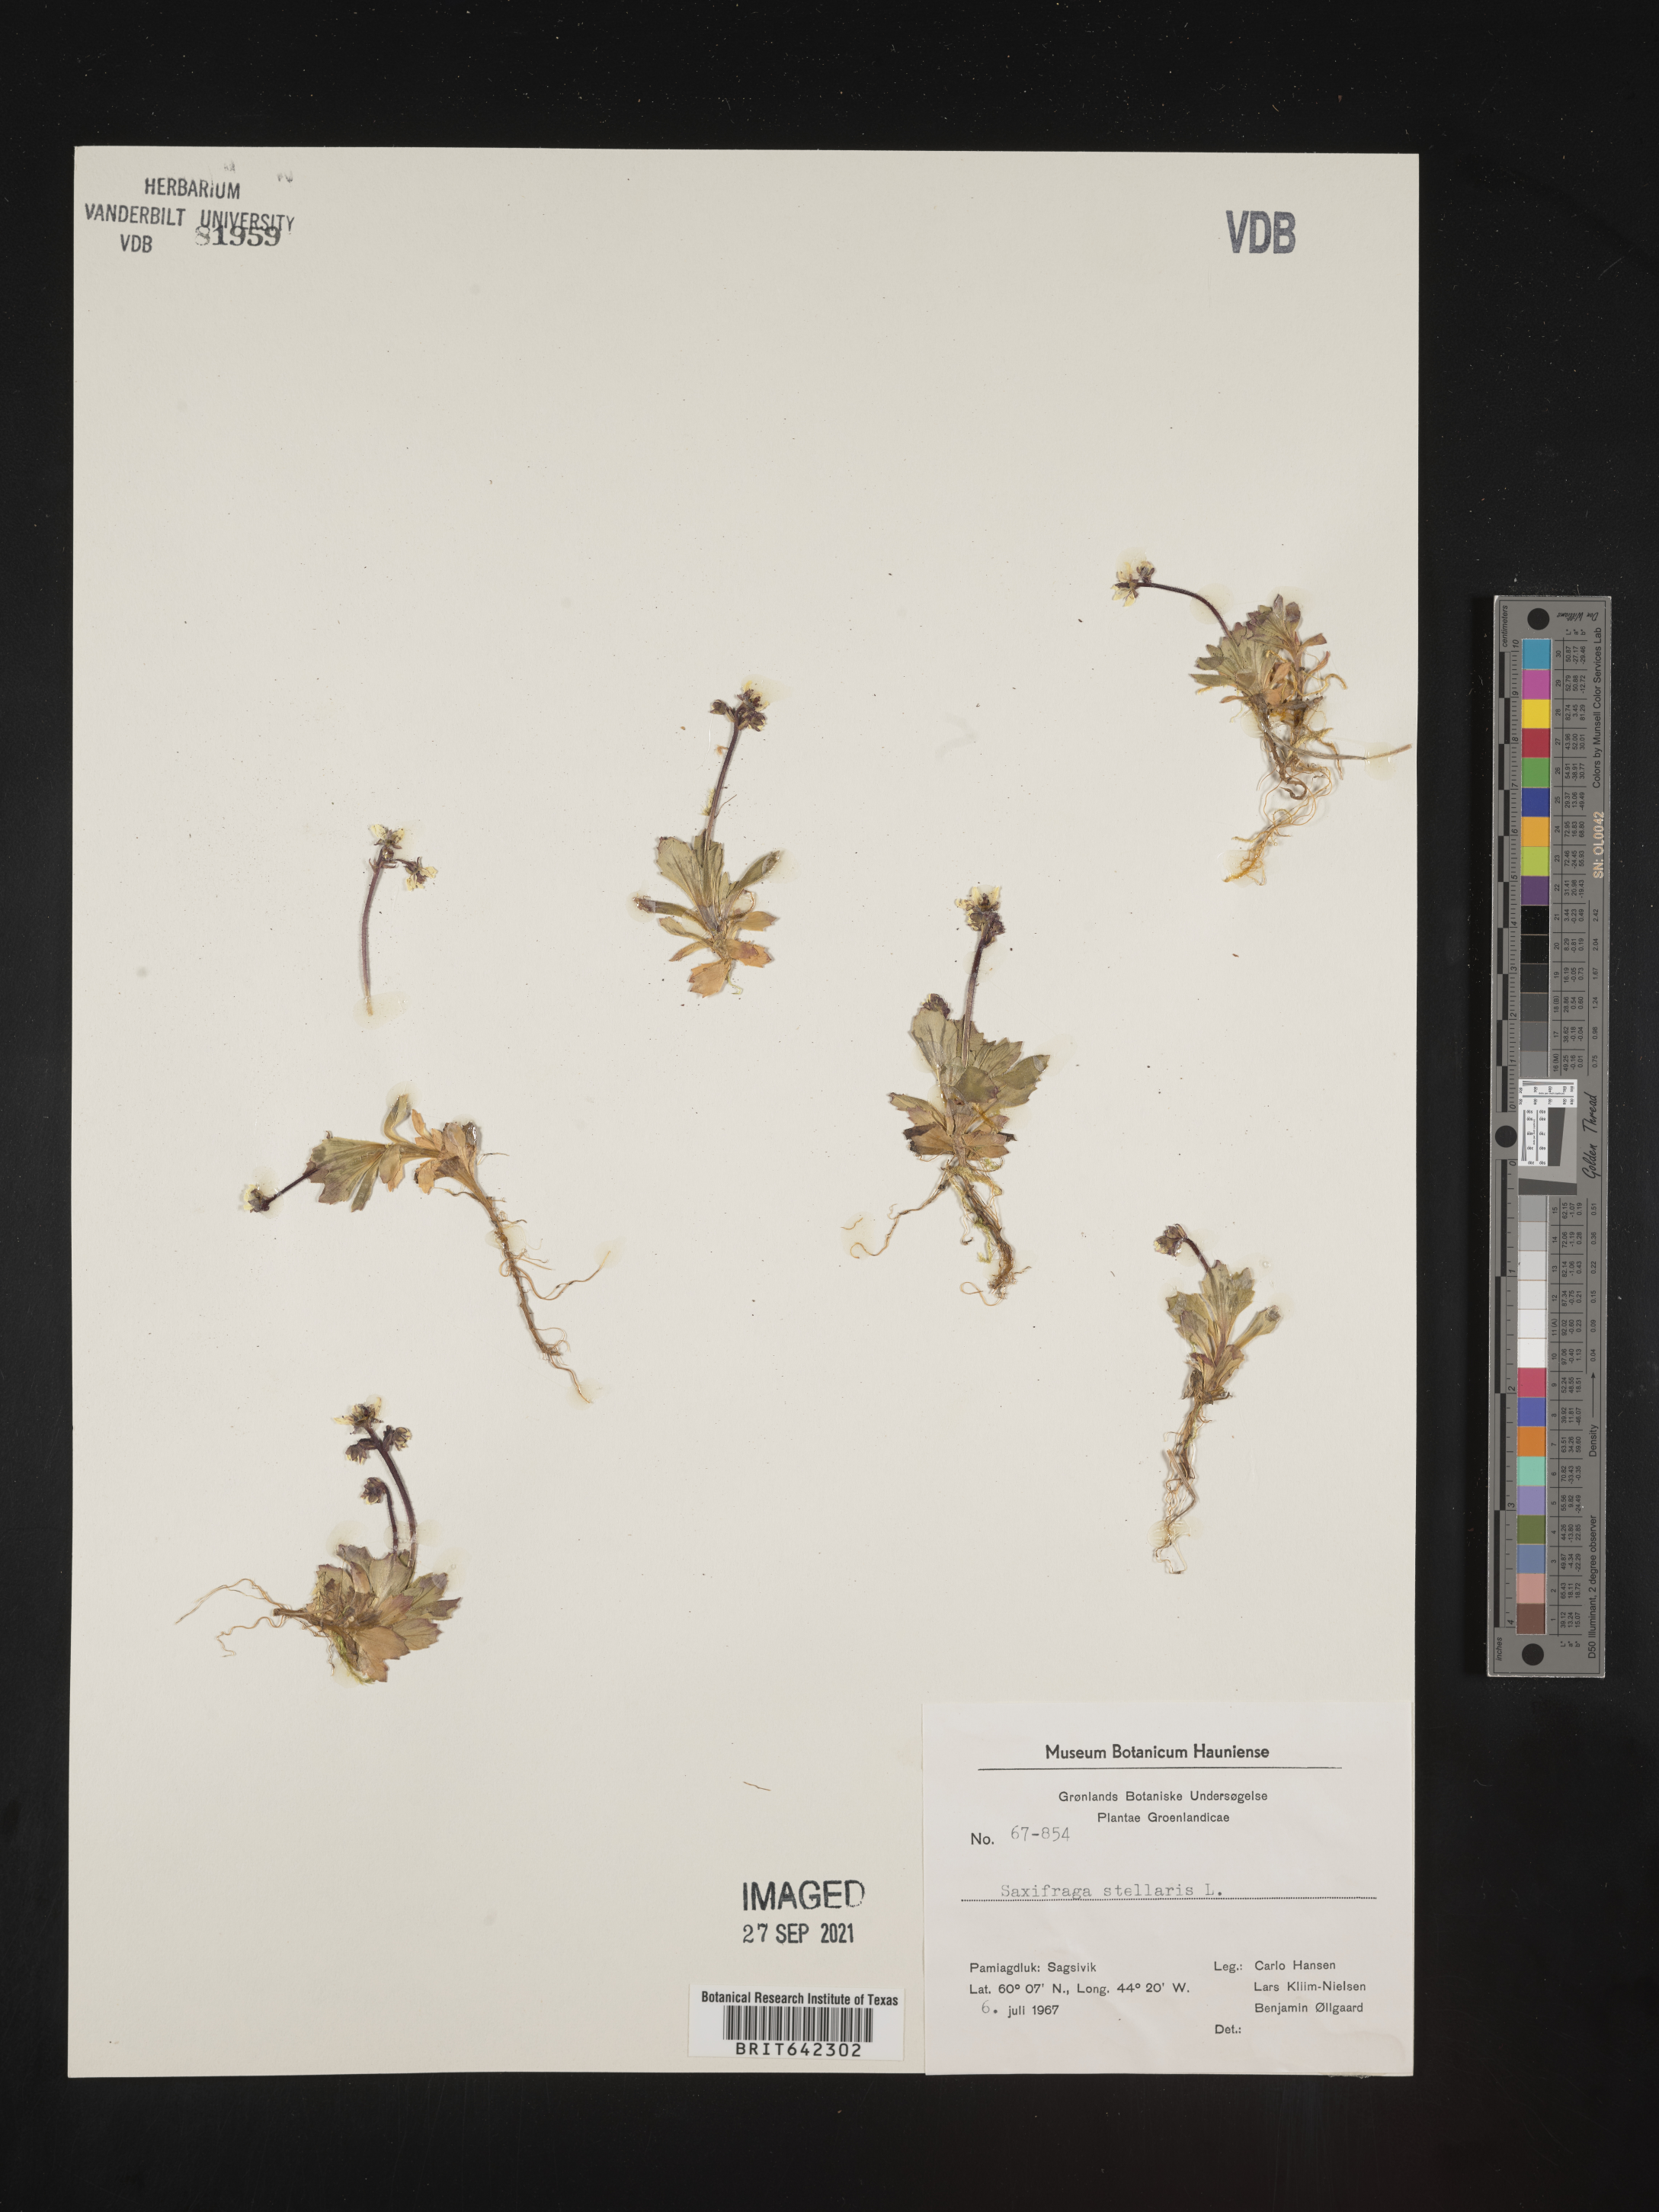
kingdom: Plantae
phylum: Tracheophyta
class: Magnoliopsida
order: Saxifragales
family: Saxifragaceae
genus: Saxifraga
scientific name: Saxifraga
